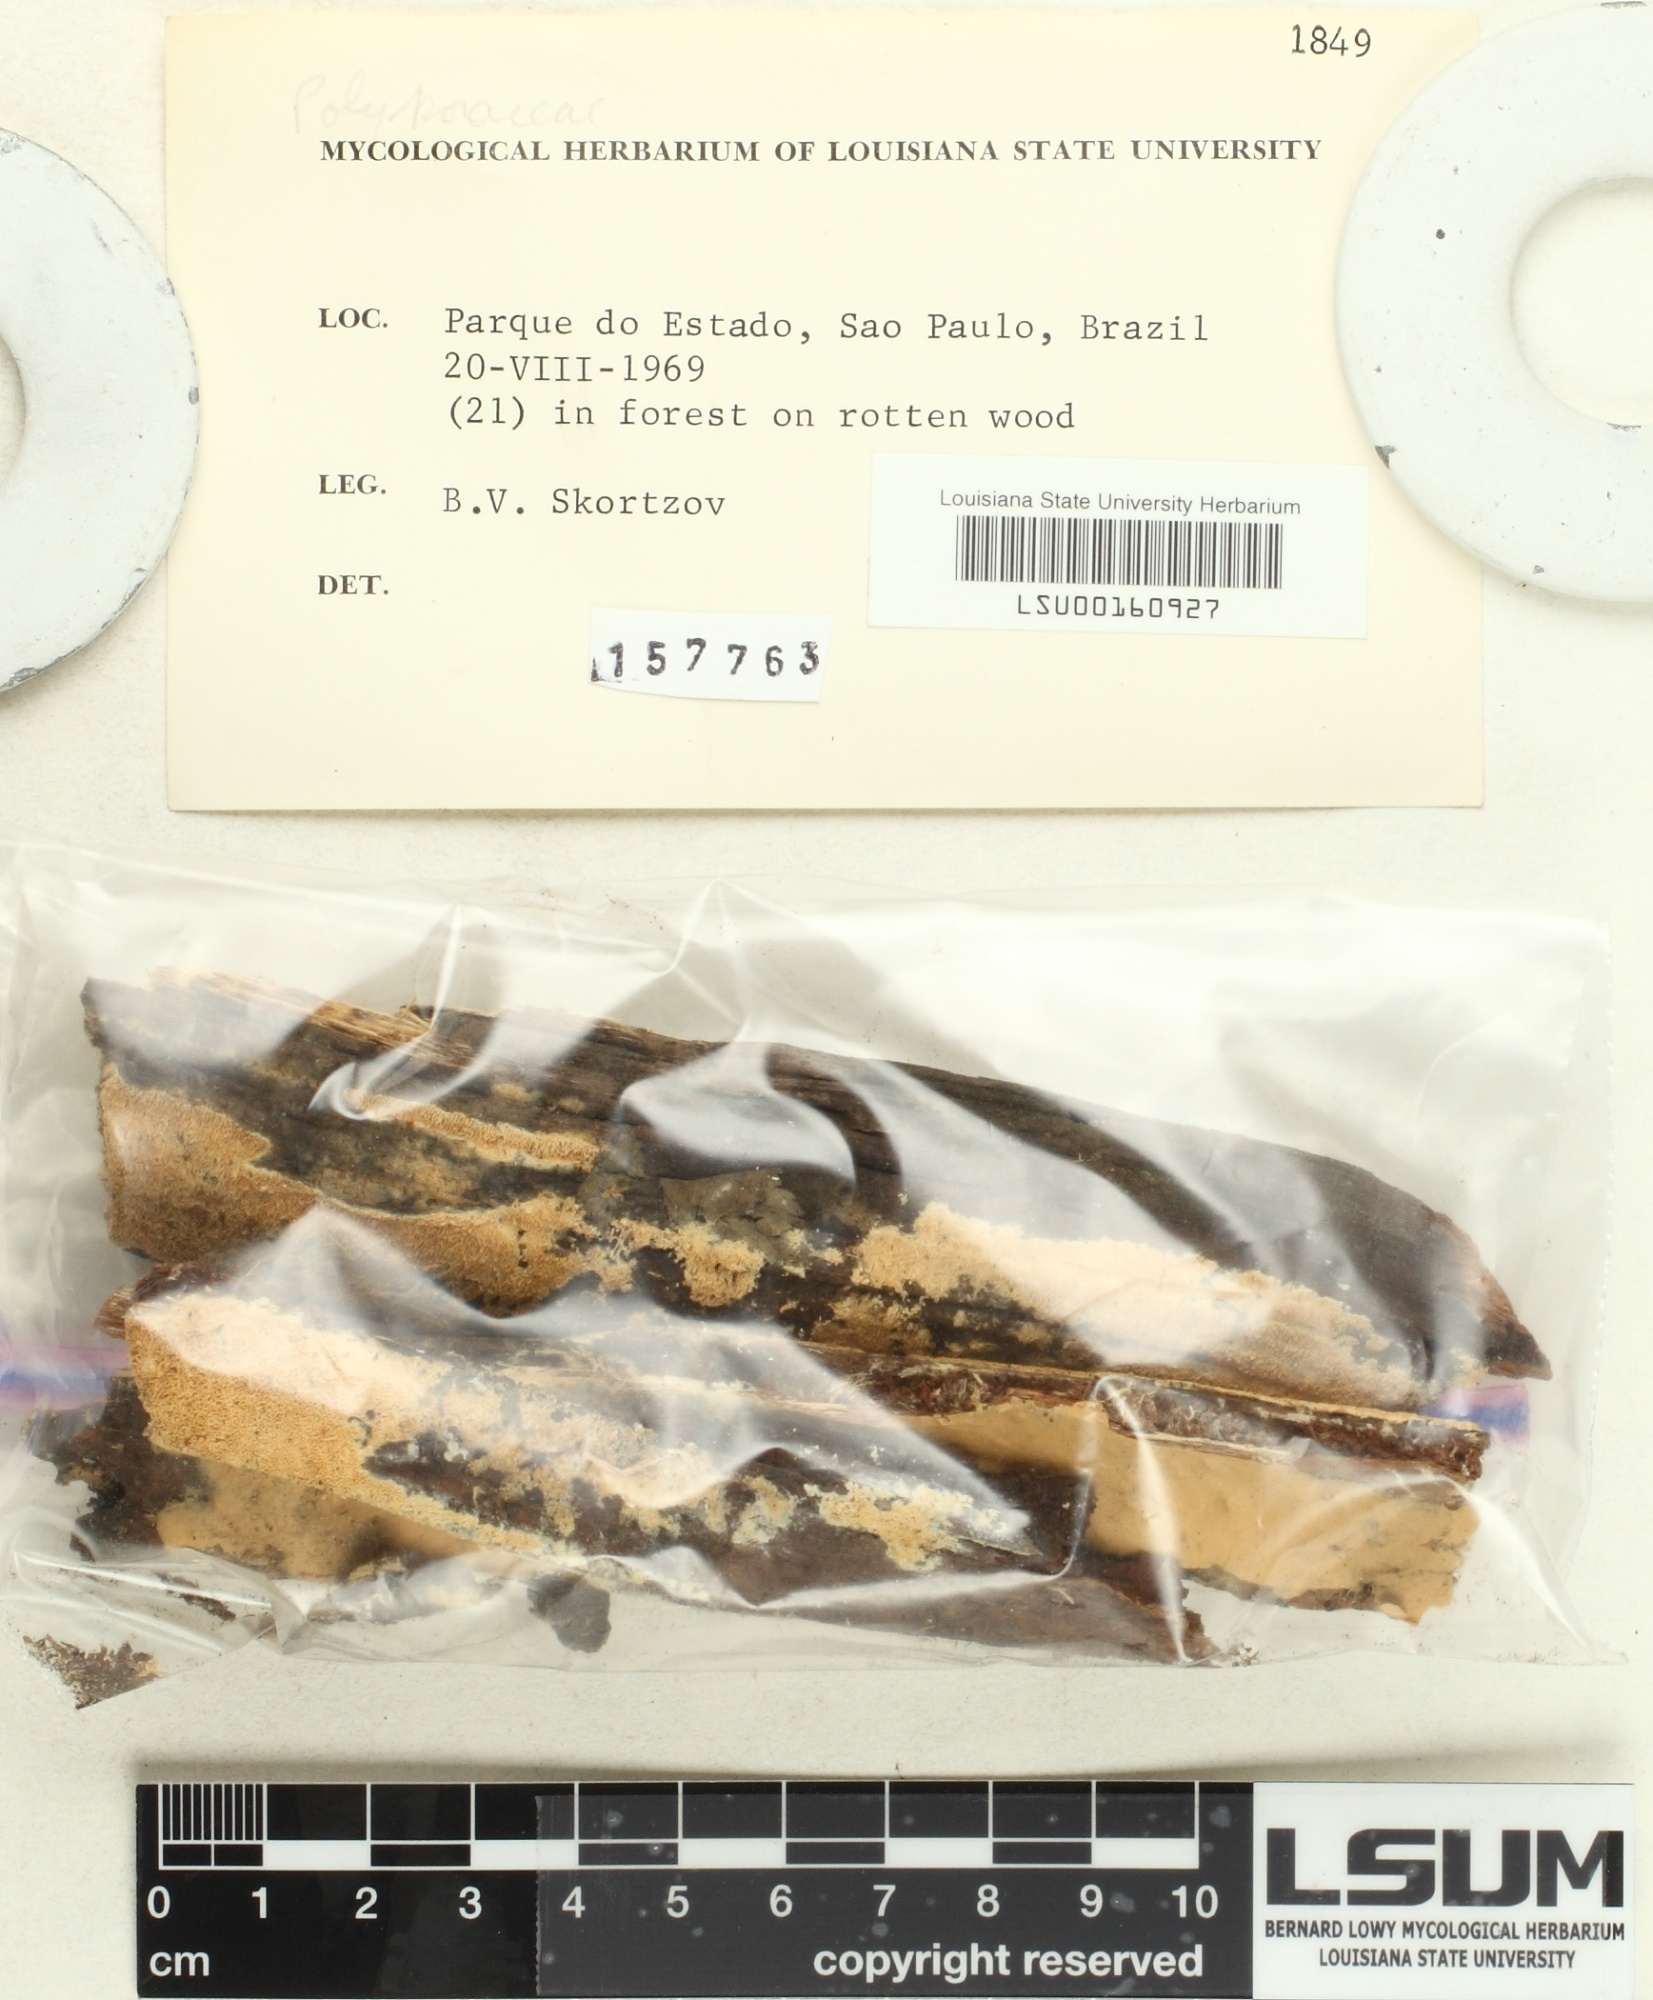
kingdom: Fungi
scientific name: Fungi
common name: Fungi
